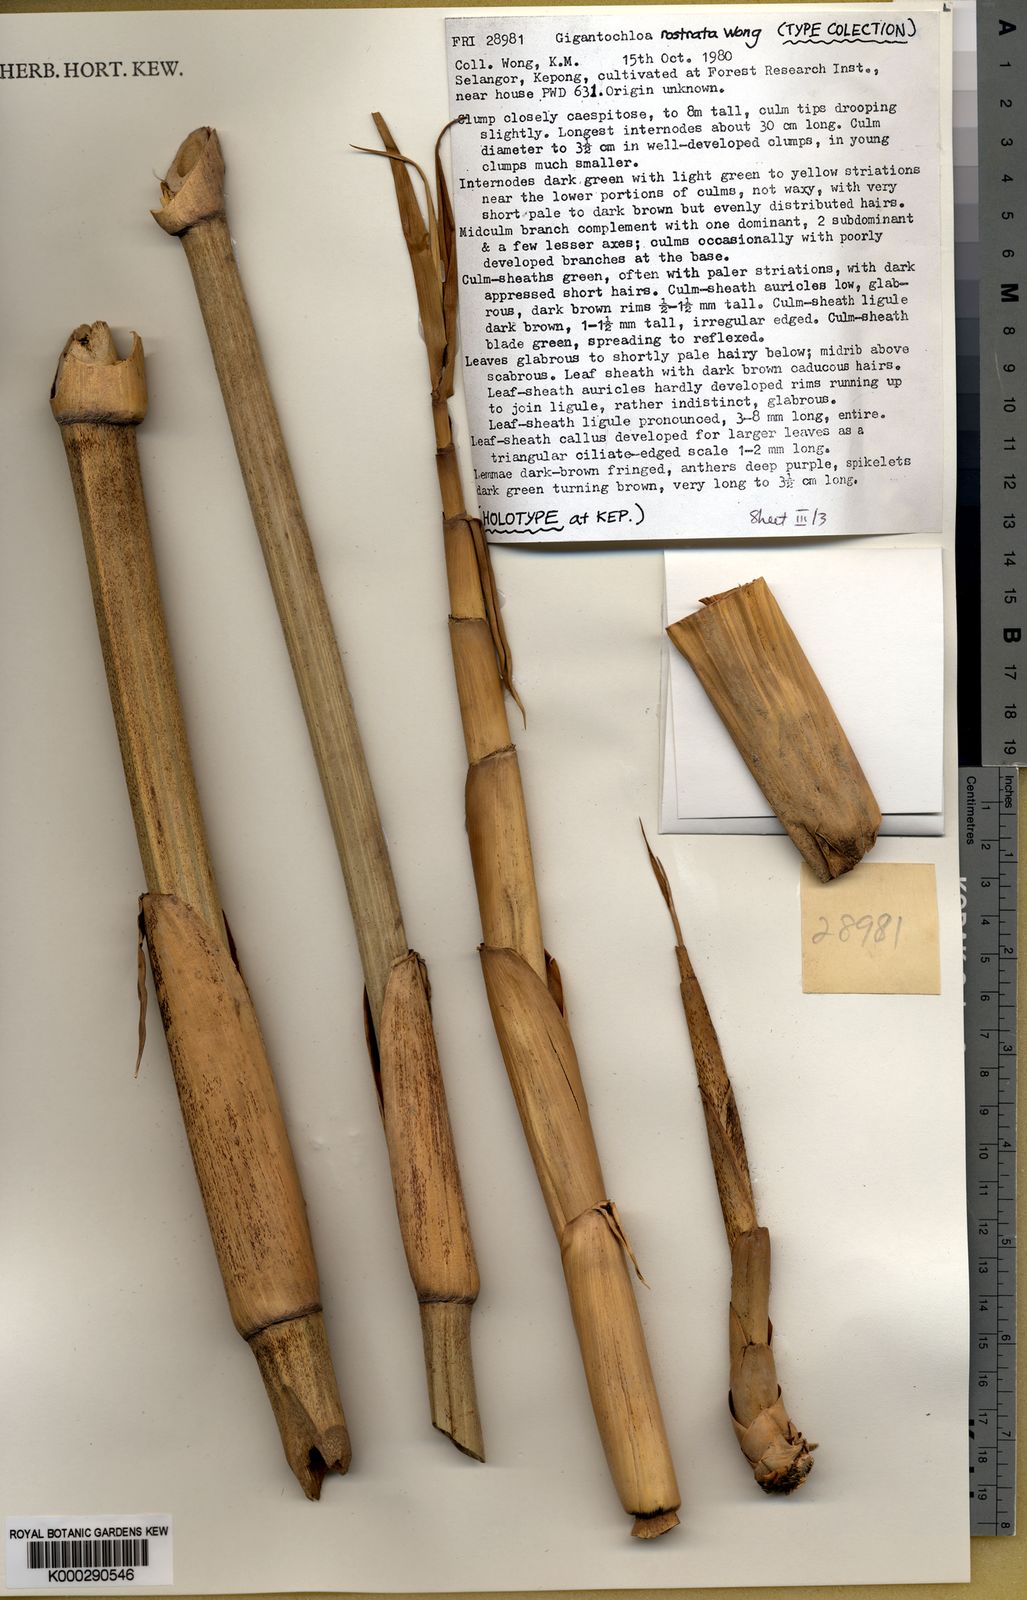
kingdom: Plantae
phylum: Tracheophyta
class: Liliopsida
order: Poales
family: Poaceae
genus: Gigantochloa
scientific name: Gigantochloa rostrata
